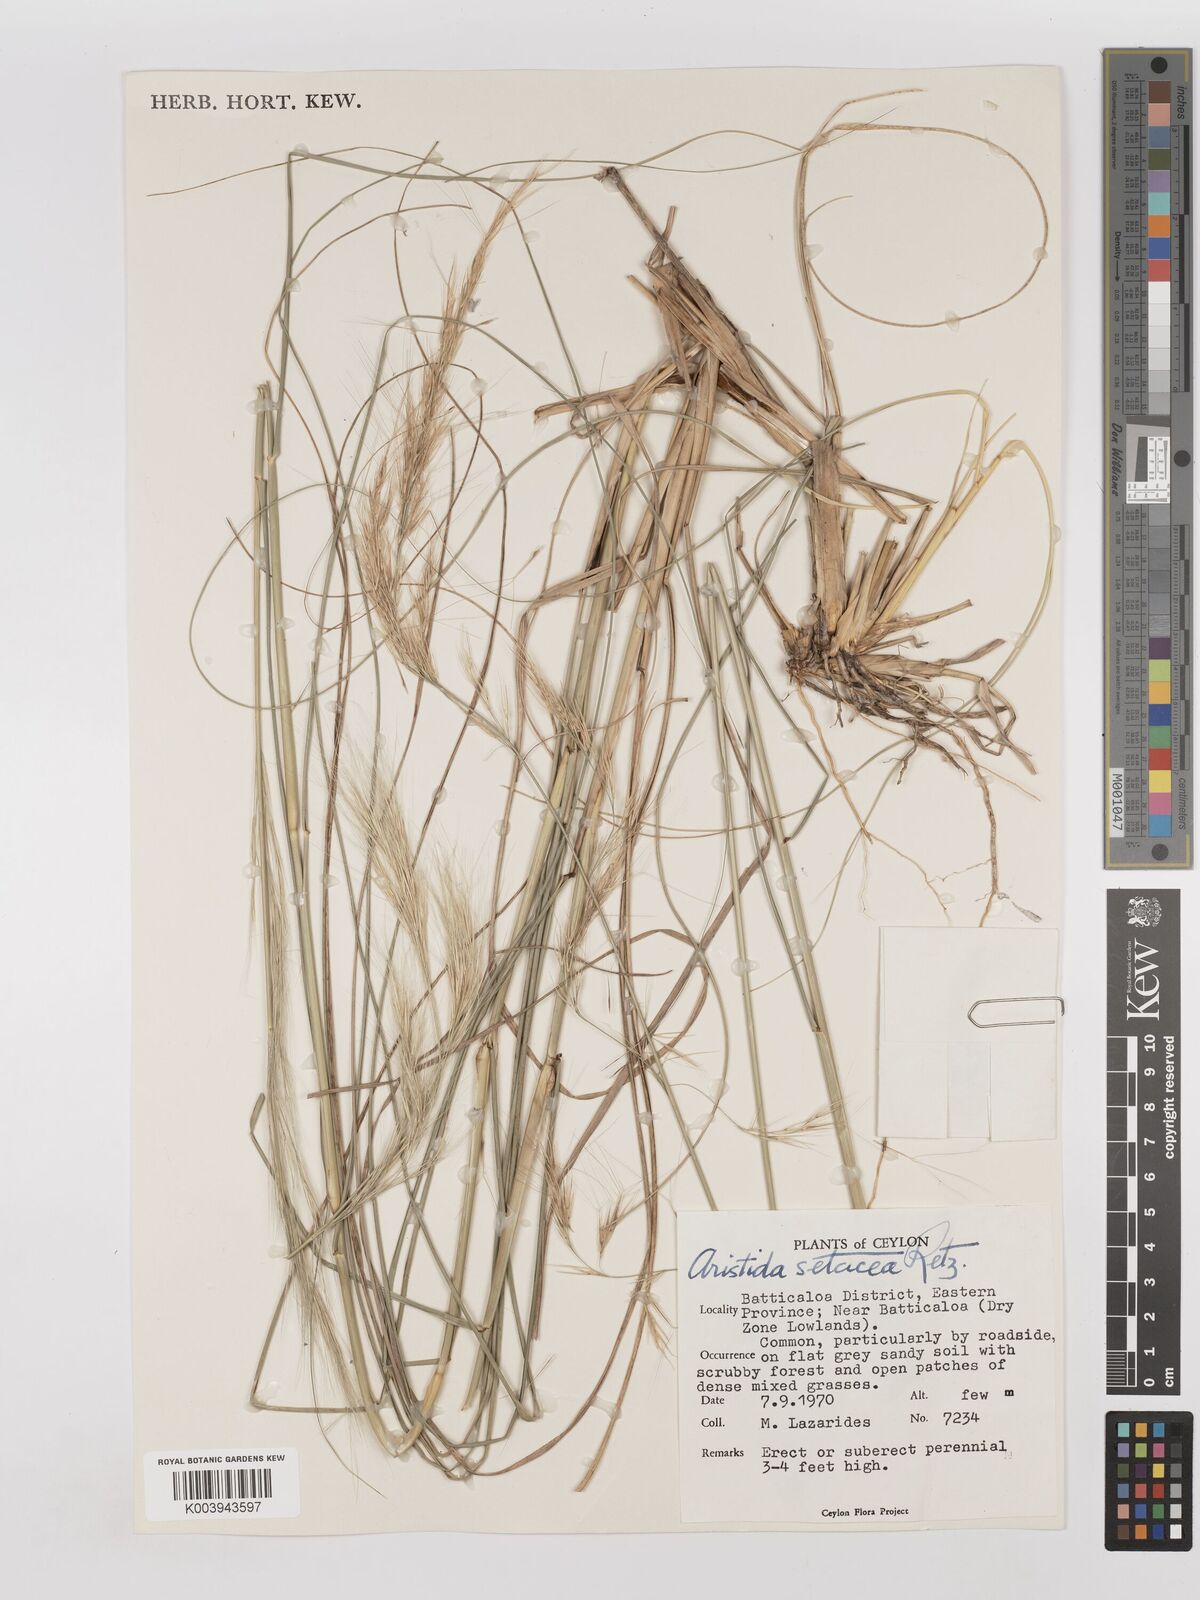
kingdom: Plantae
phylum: Tracheophyta
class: Liliopsida
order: Poales
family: Poaceae
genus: Aristida
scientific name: Aristida setacea
